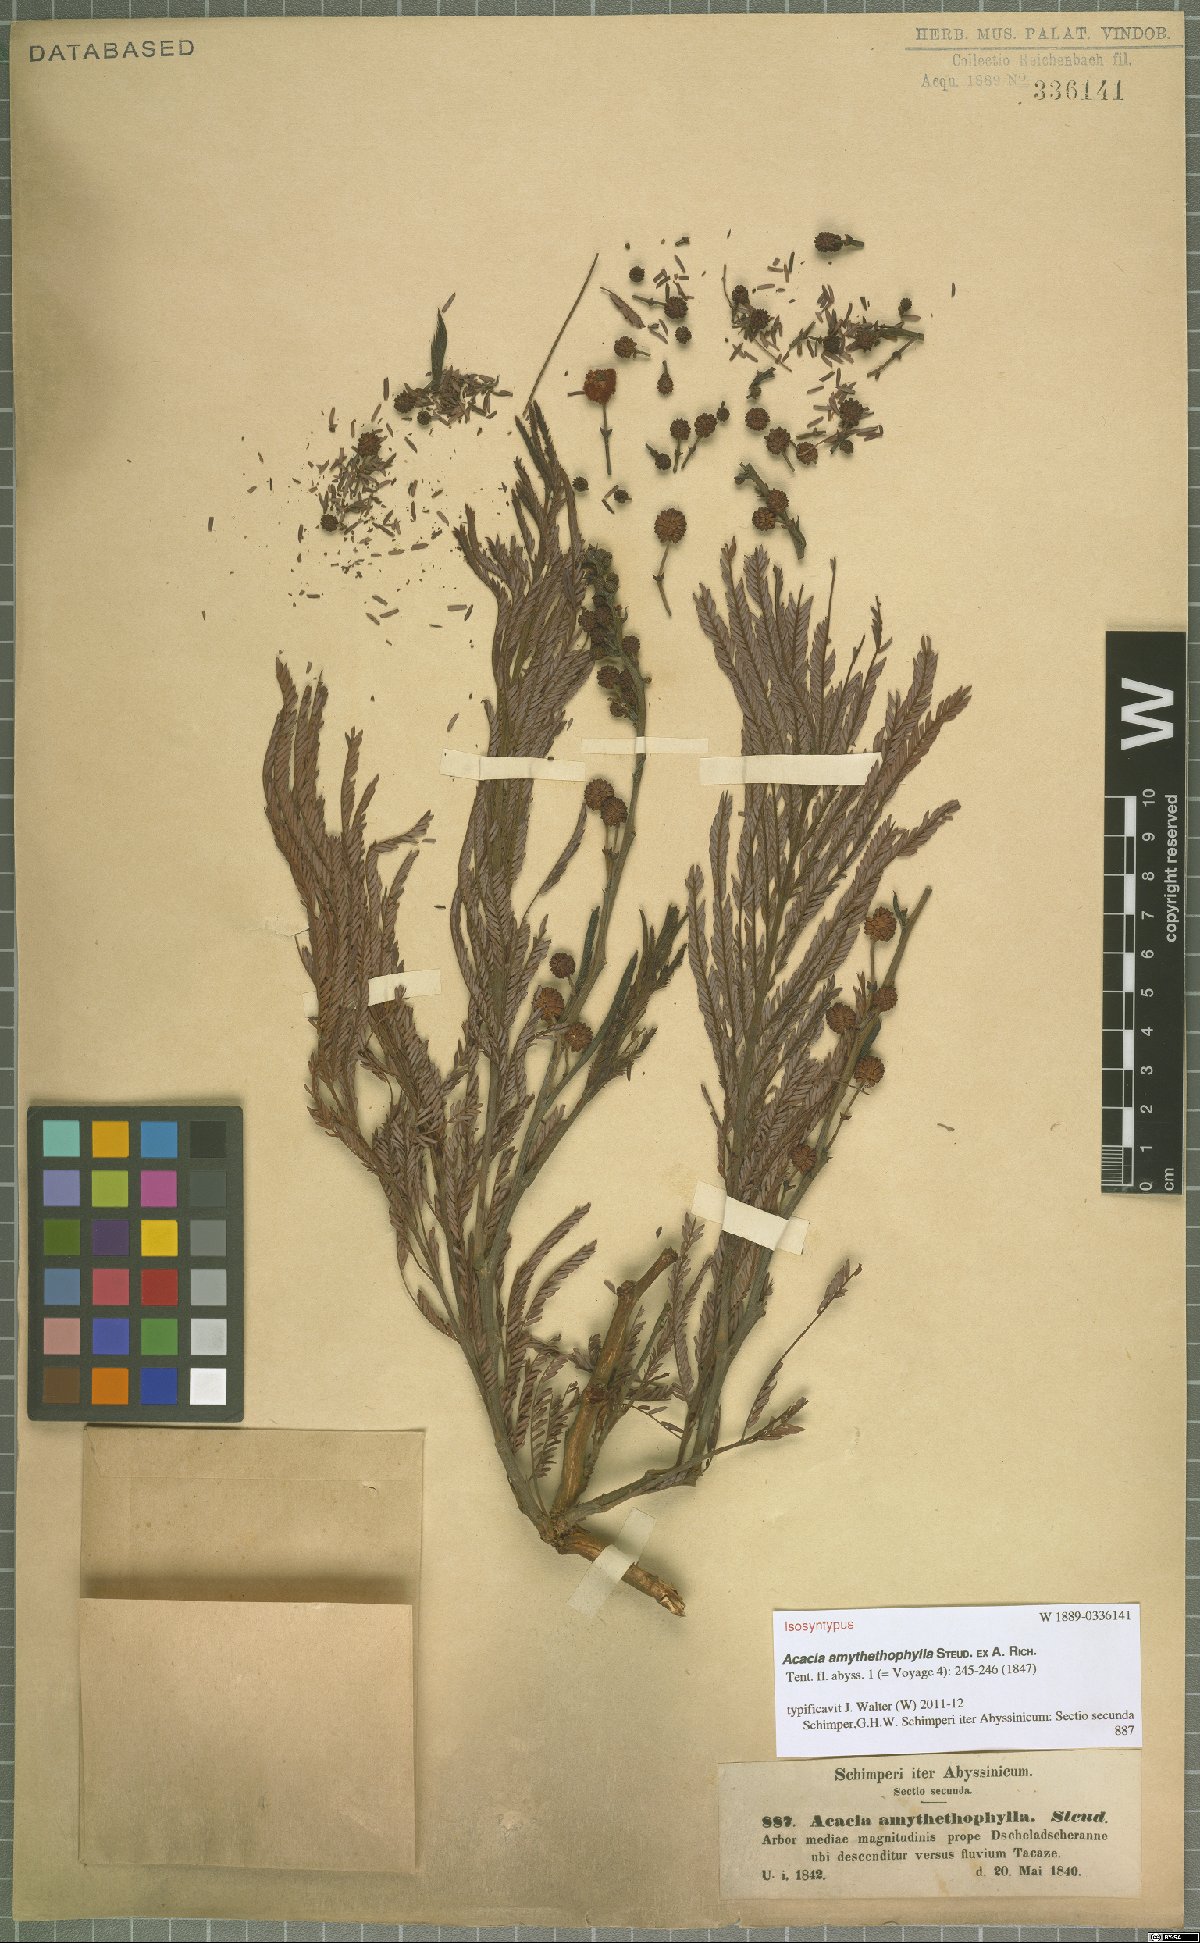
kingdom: Plantae
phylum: Tracheophyta
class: Magnoliopsida
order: Fabales
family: Fabaceae
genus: Vachellia
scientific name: Vachellia amythethophylla
